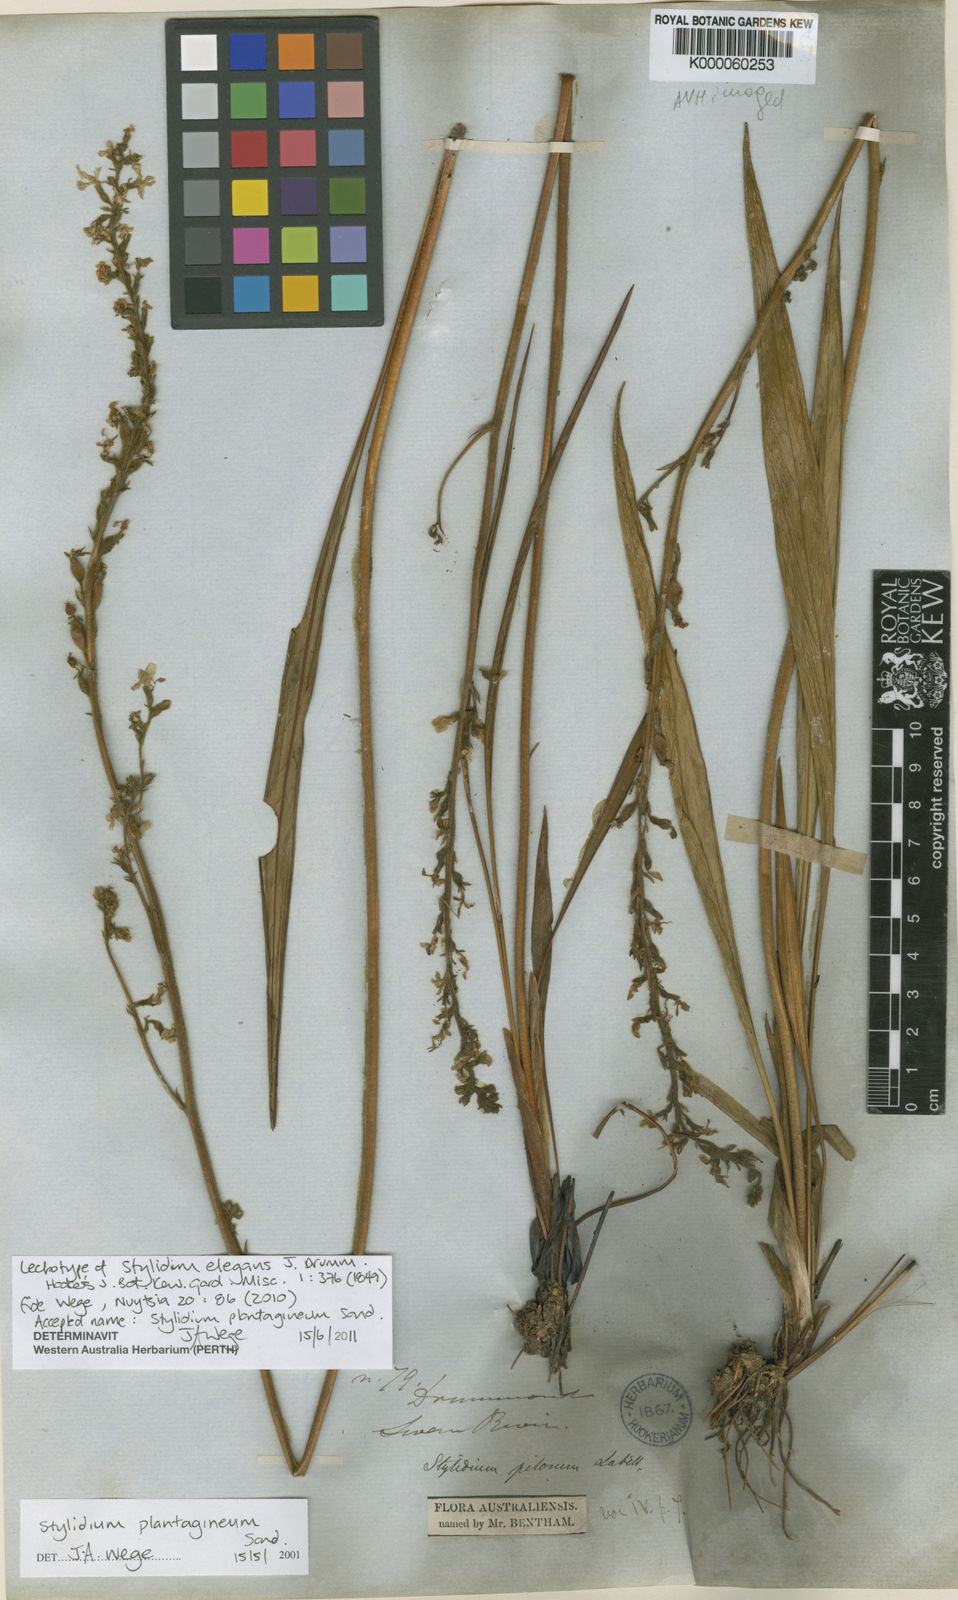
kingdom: Plantae
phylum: Tracheophyta
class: Magnoliopsida
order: Asterales
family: Stylidiaceae
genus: Stylidium
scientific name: Stylidium plantagineum
